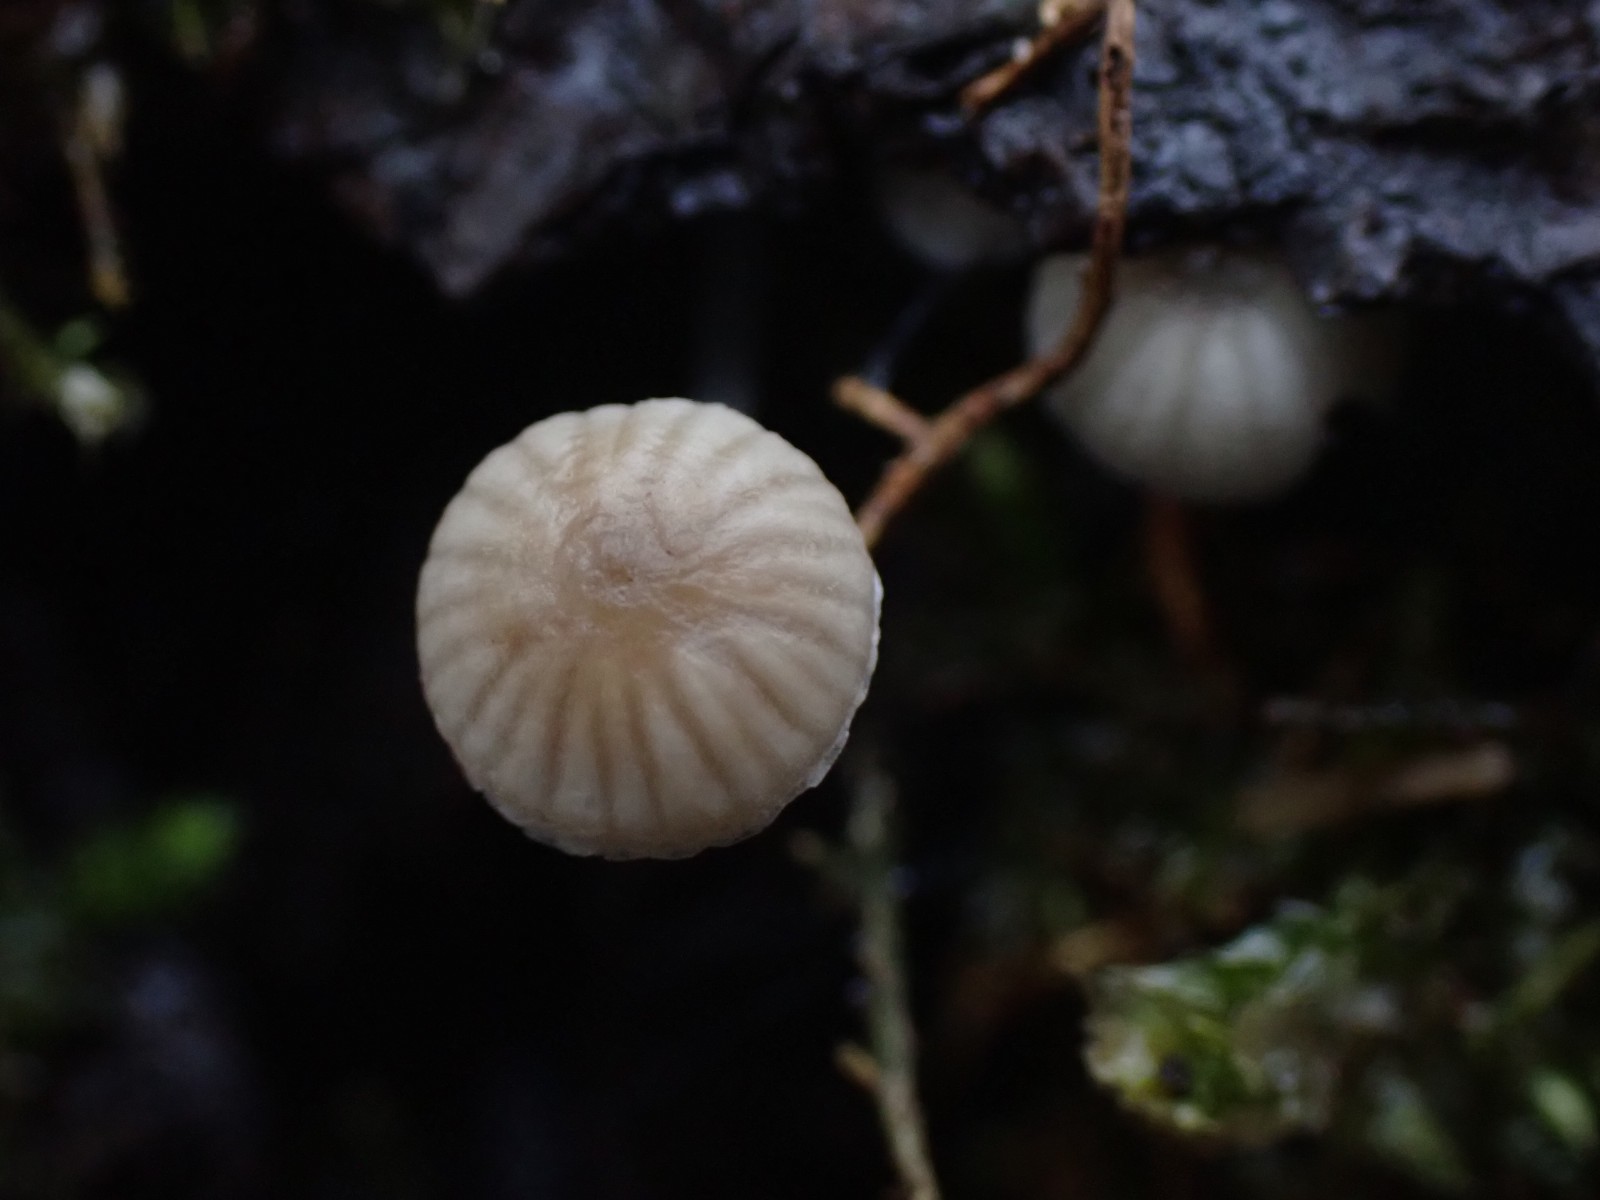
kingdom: Fungi
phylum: Basidiomycota
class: Agaricomycetes
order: Agaricales
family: Porotheleaceae
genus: Phloeomana
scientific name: Phloeomana speirea
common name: kvist-huesvamp
